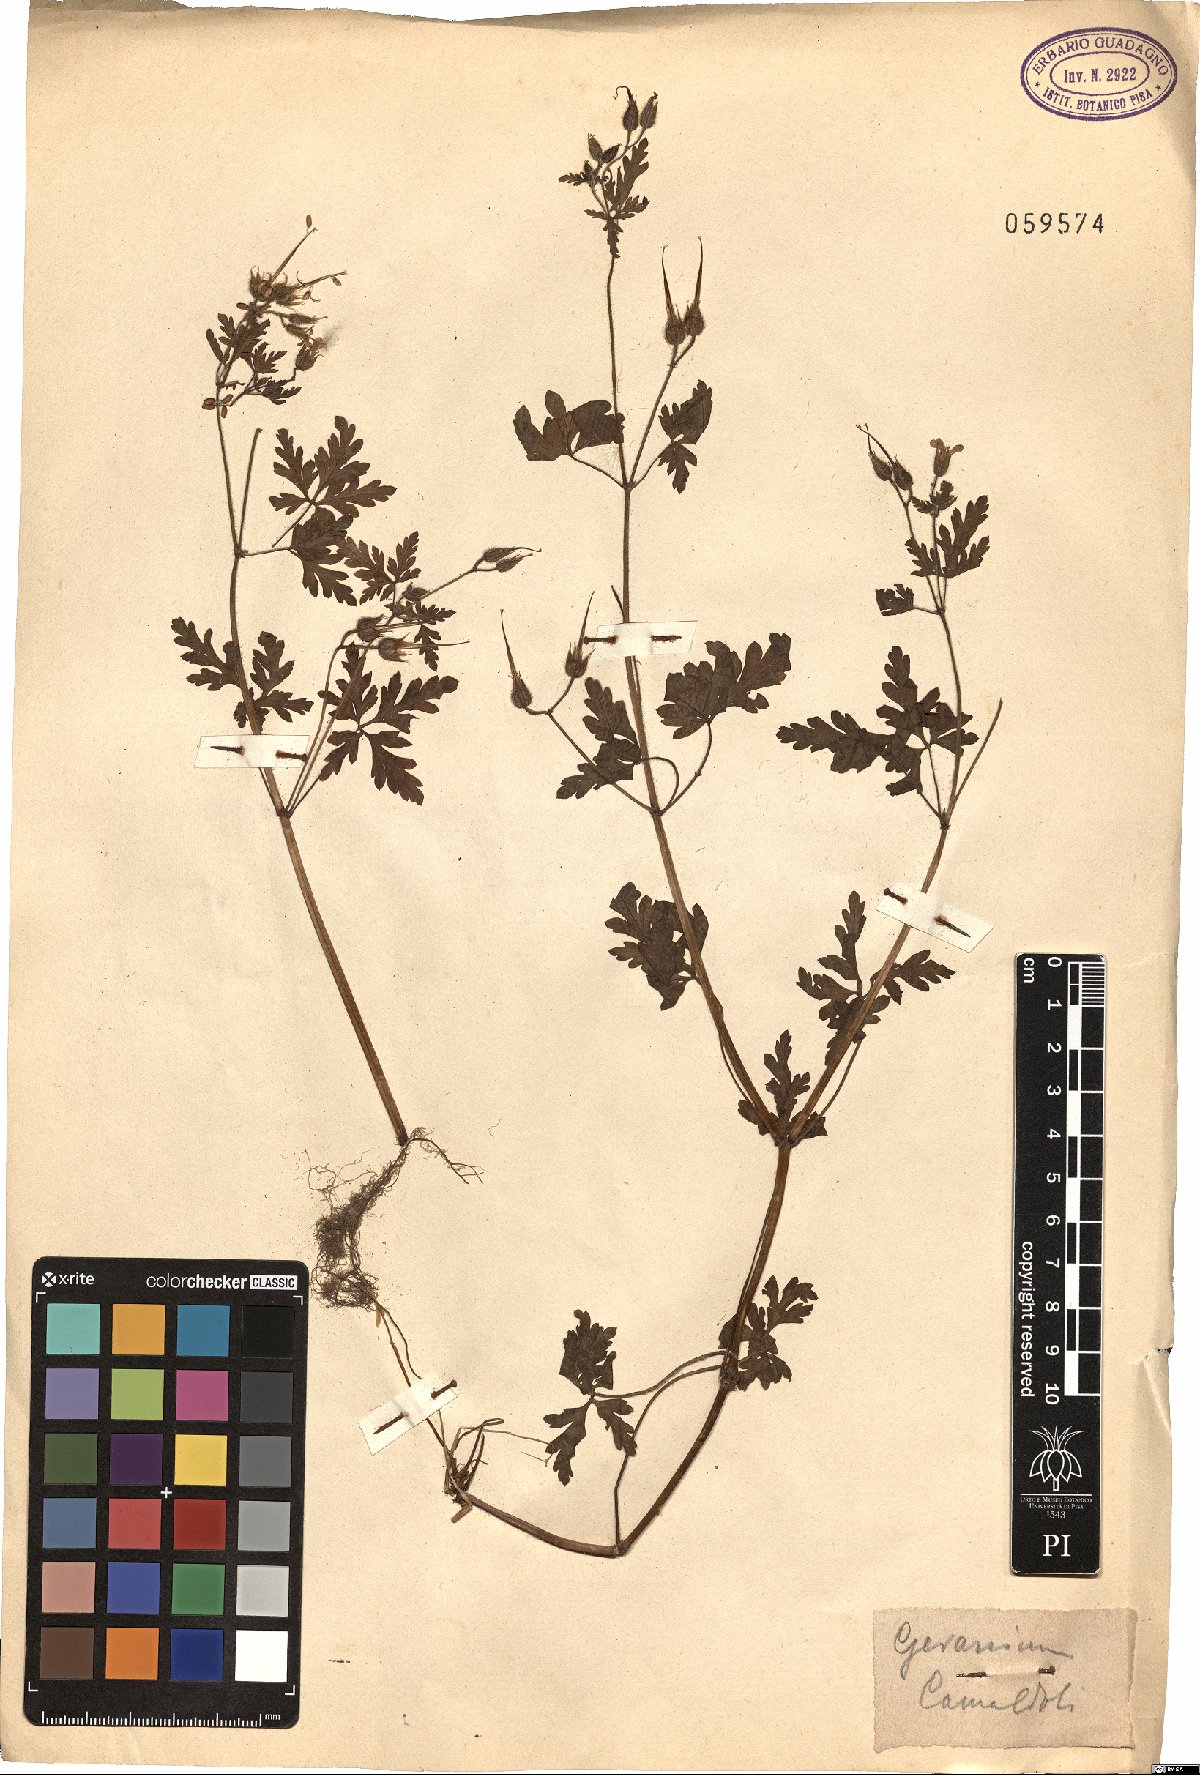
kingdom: Plantae
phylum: Tracheophyta
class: Magnoliopsida
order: Geraniales
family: Geraniaceae
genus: Geranium
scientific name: Geranium
